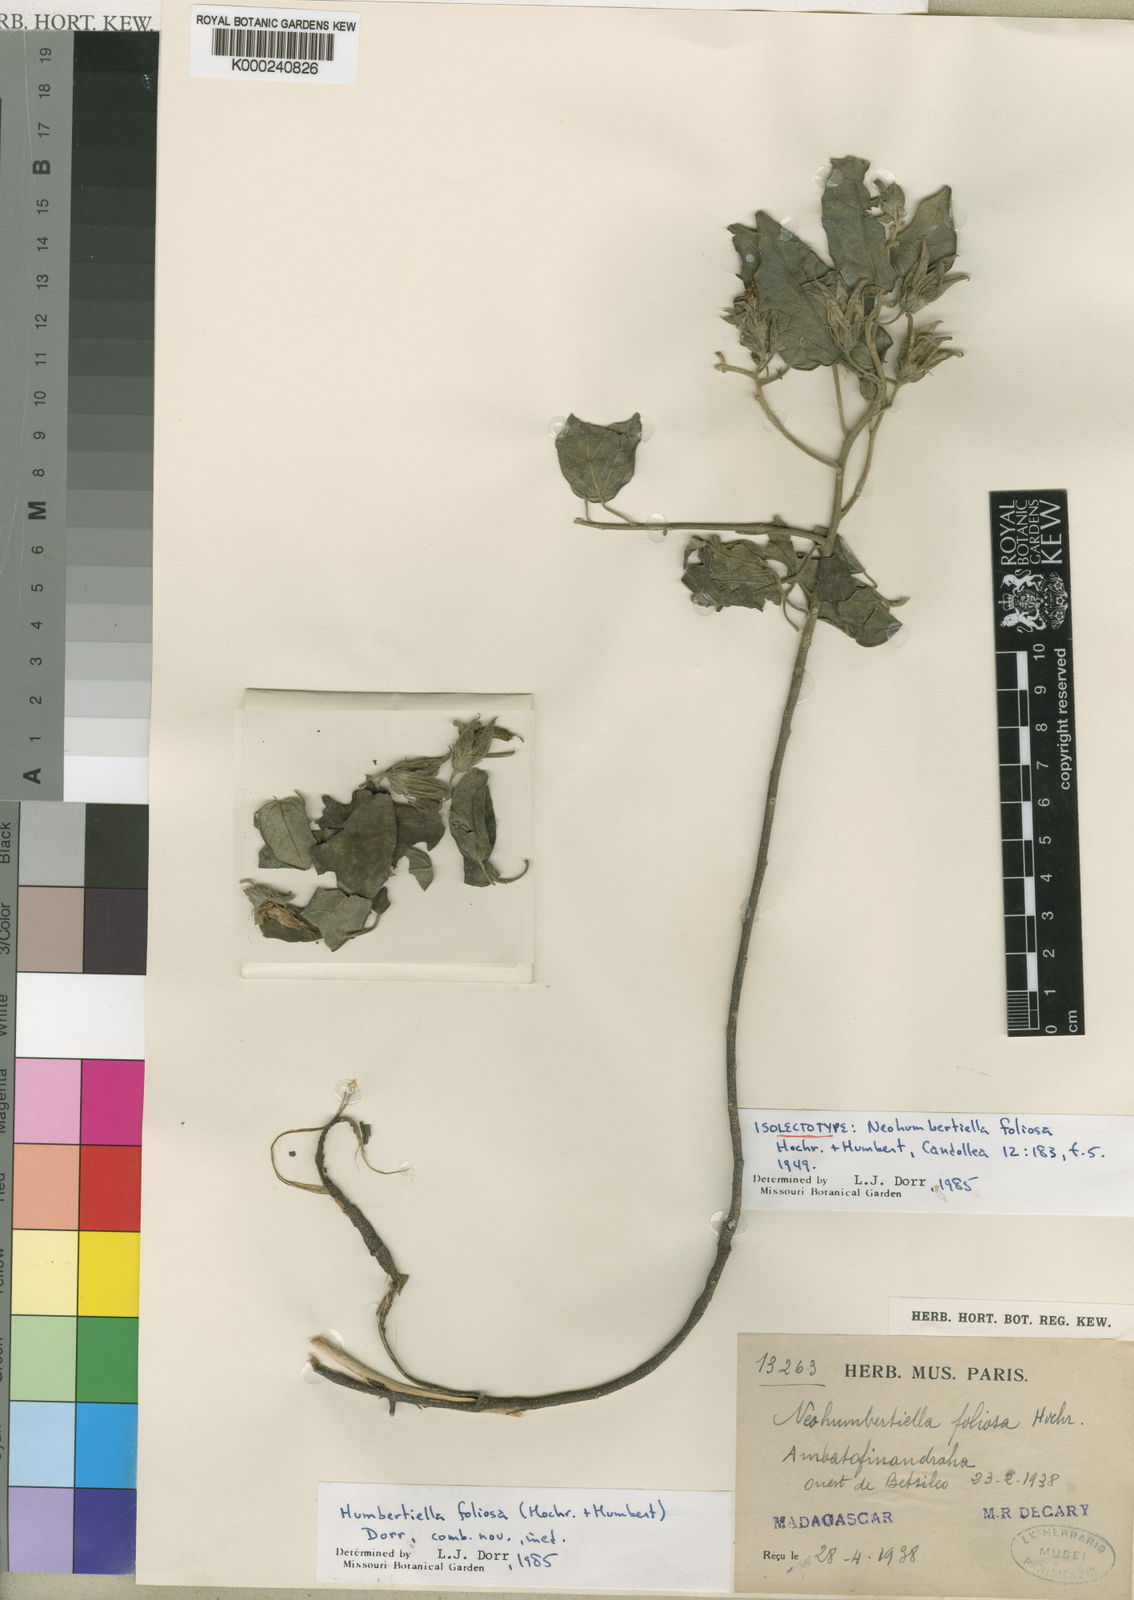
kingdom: Plantae
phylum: Tracheophyta
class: Magnoliopsida
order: Malvales
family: Malvaceae
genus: Humbertiella
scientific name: Humbertiella foliosa
